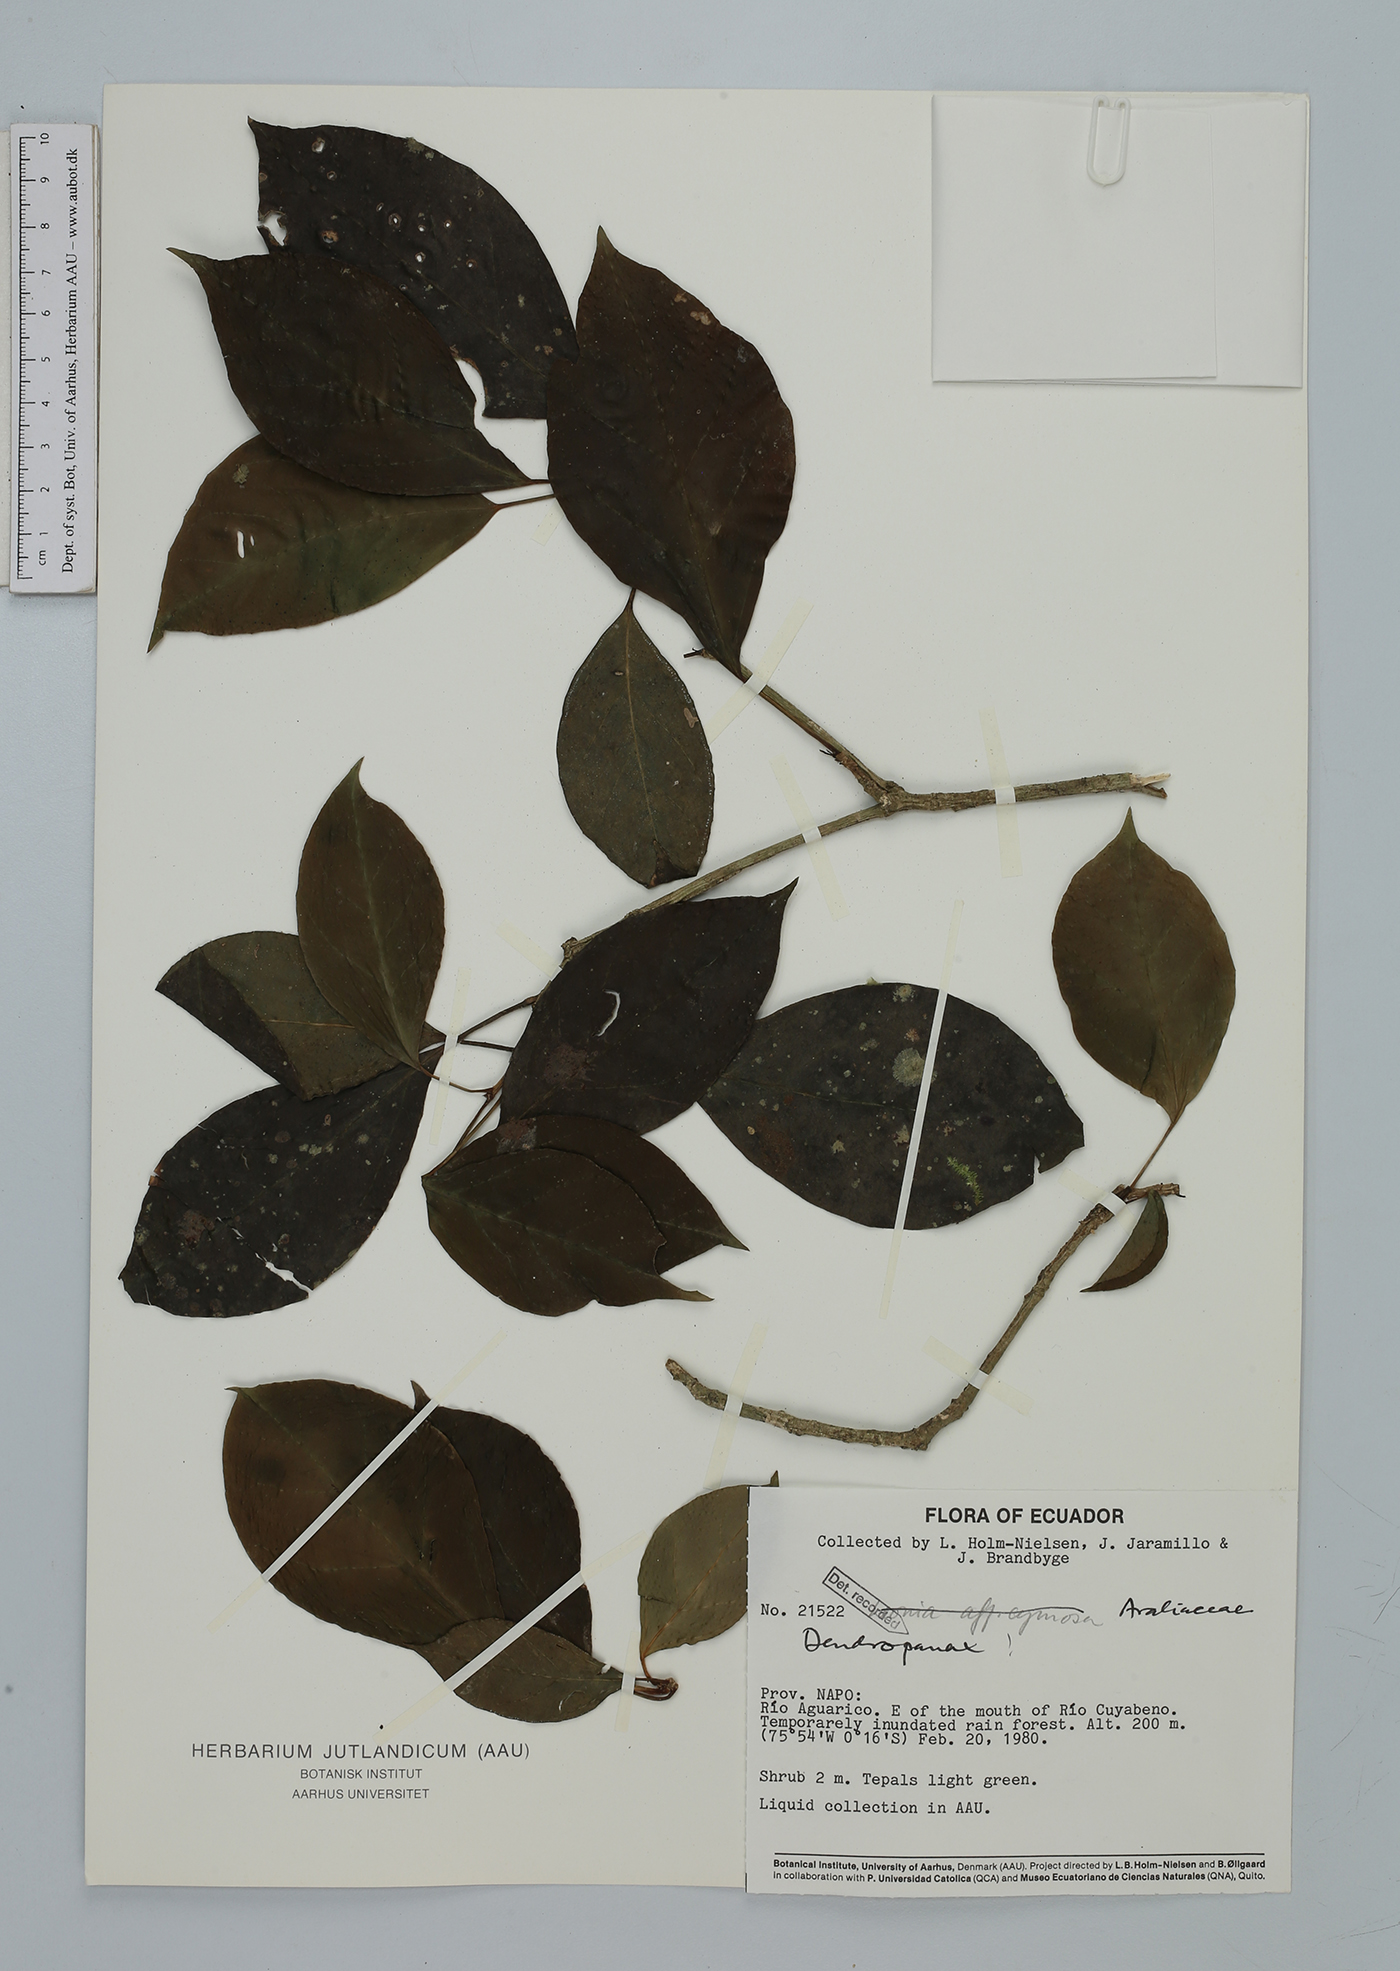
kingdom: Plantae
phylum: Tracheophyta
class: Magnoliopsida
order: Apiales
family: Araliaceae
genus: Dendropanax
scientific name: Dendropanax
